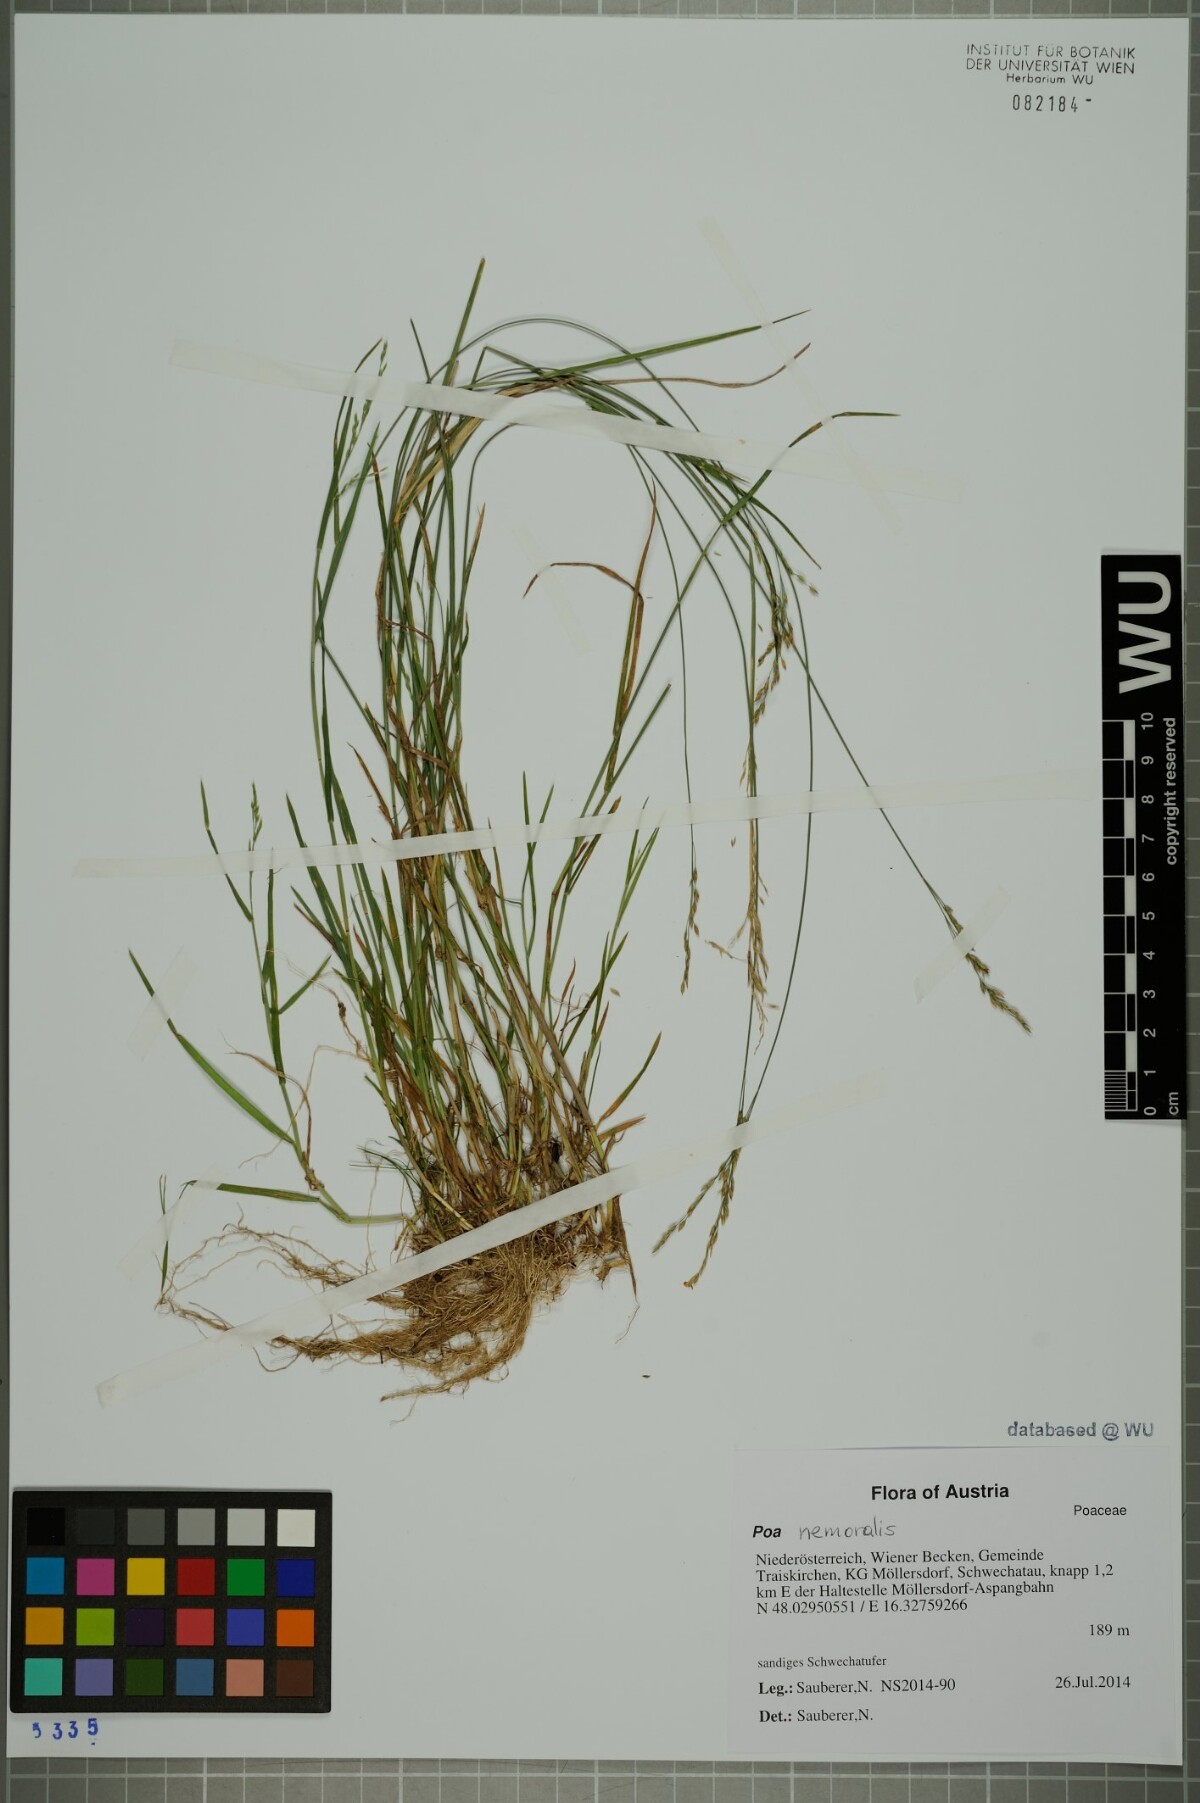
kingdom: Plantae
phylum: Tracheophyta
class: Liliopsida
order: Poales
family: Poaceae
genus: Poa
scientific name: Poa nemoralis
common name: Wood bluegrass
